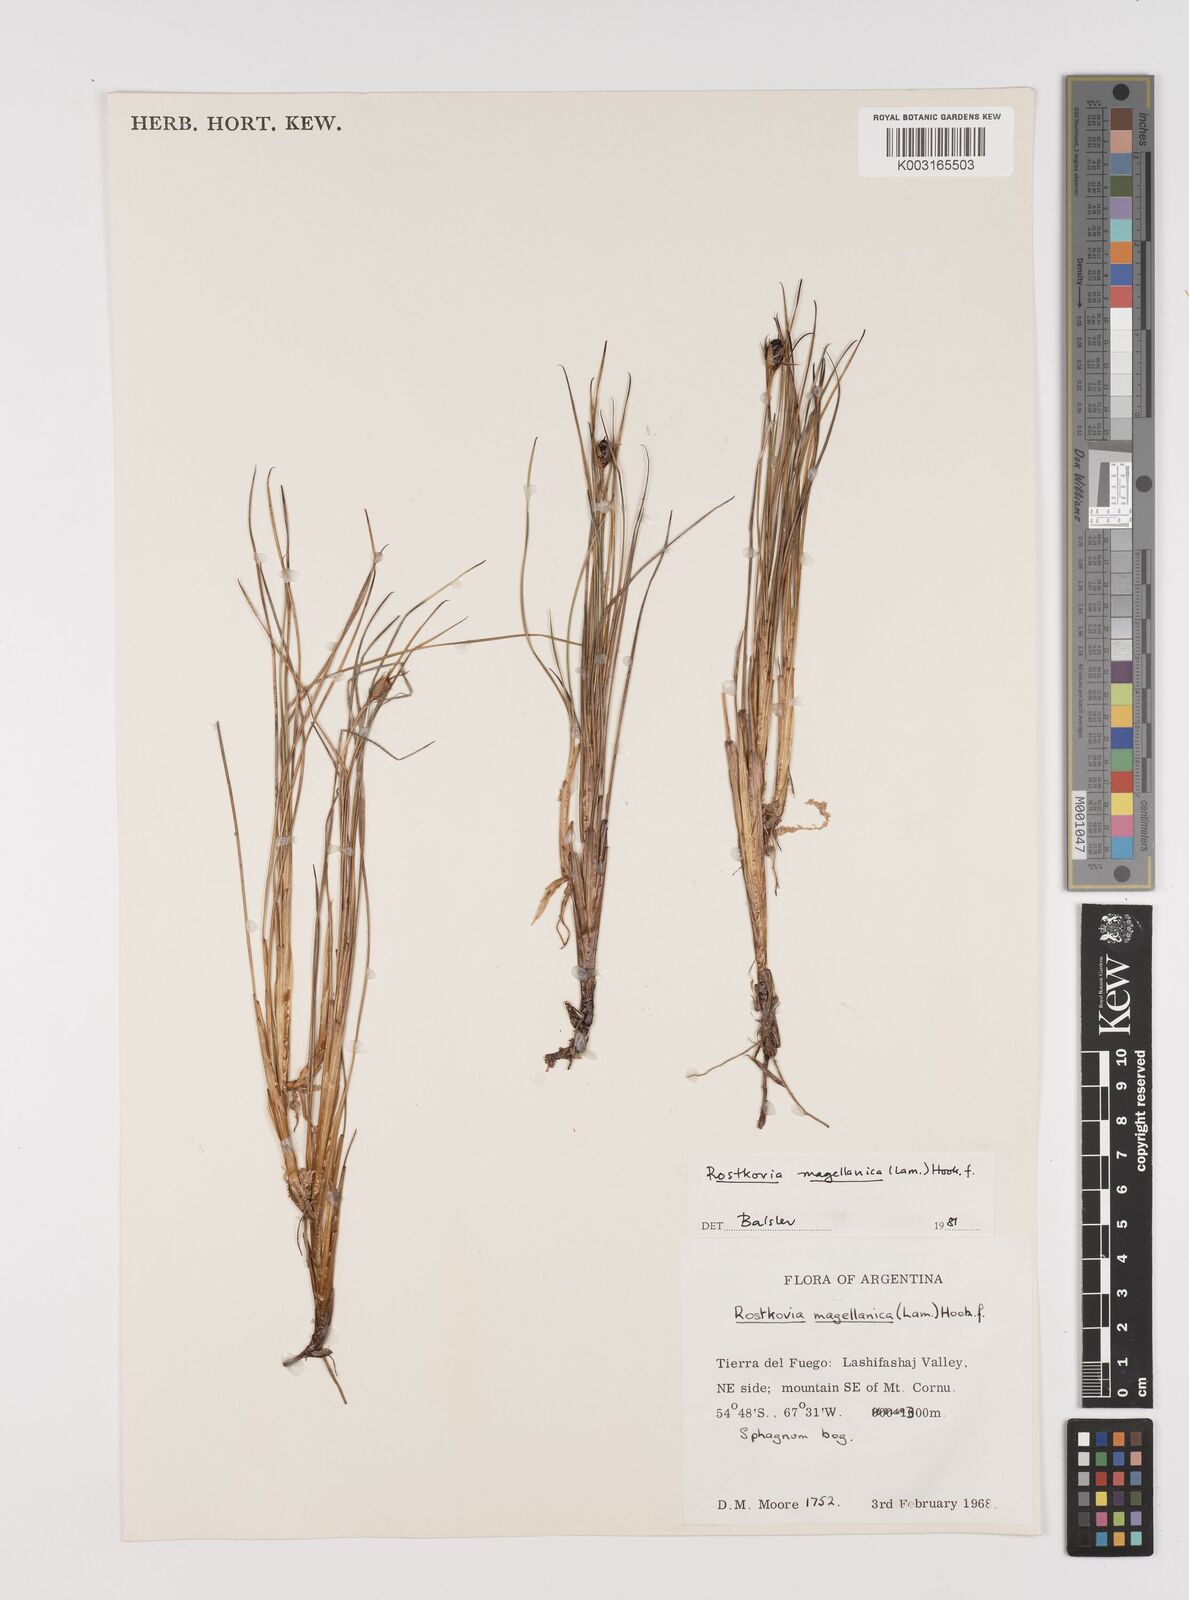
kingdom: Plantae
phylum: Tracheophyta
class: Liliopsida
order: Poales
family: Juncaceae
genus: Rostkovia
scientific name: Rostkovia magellanica
